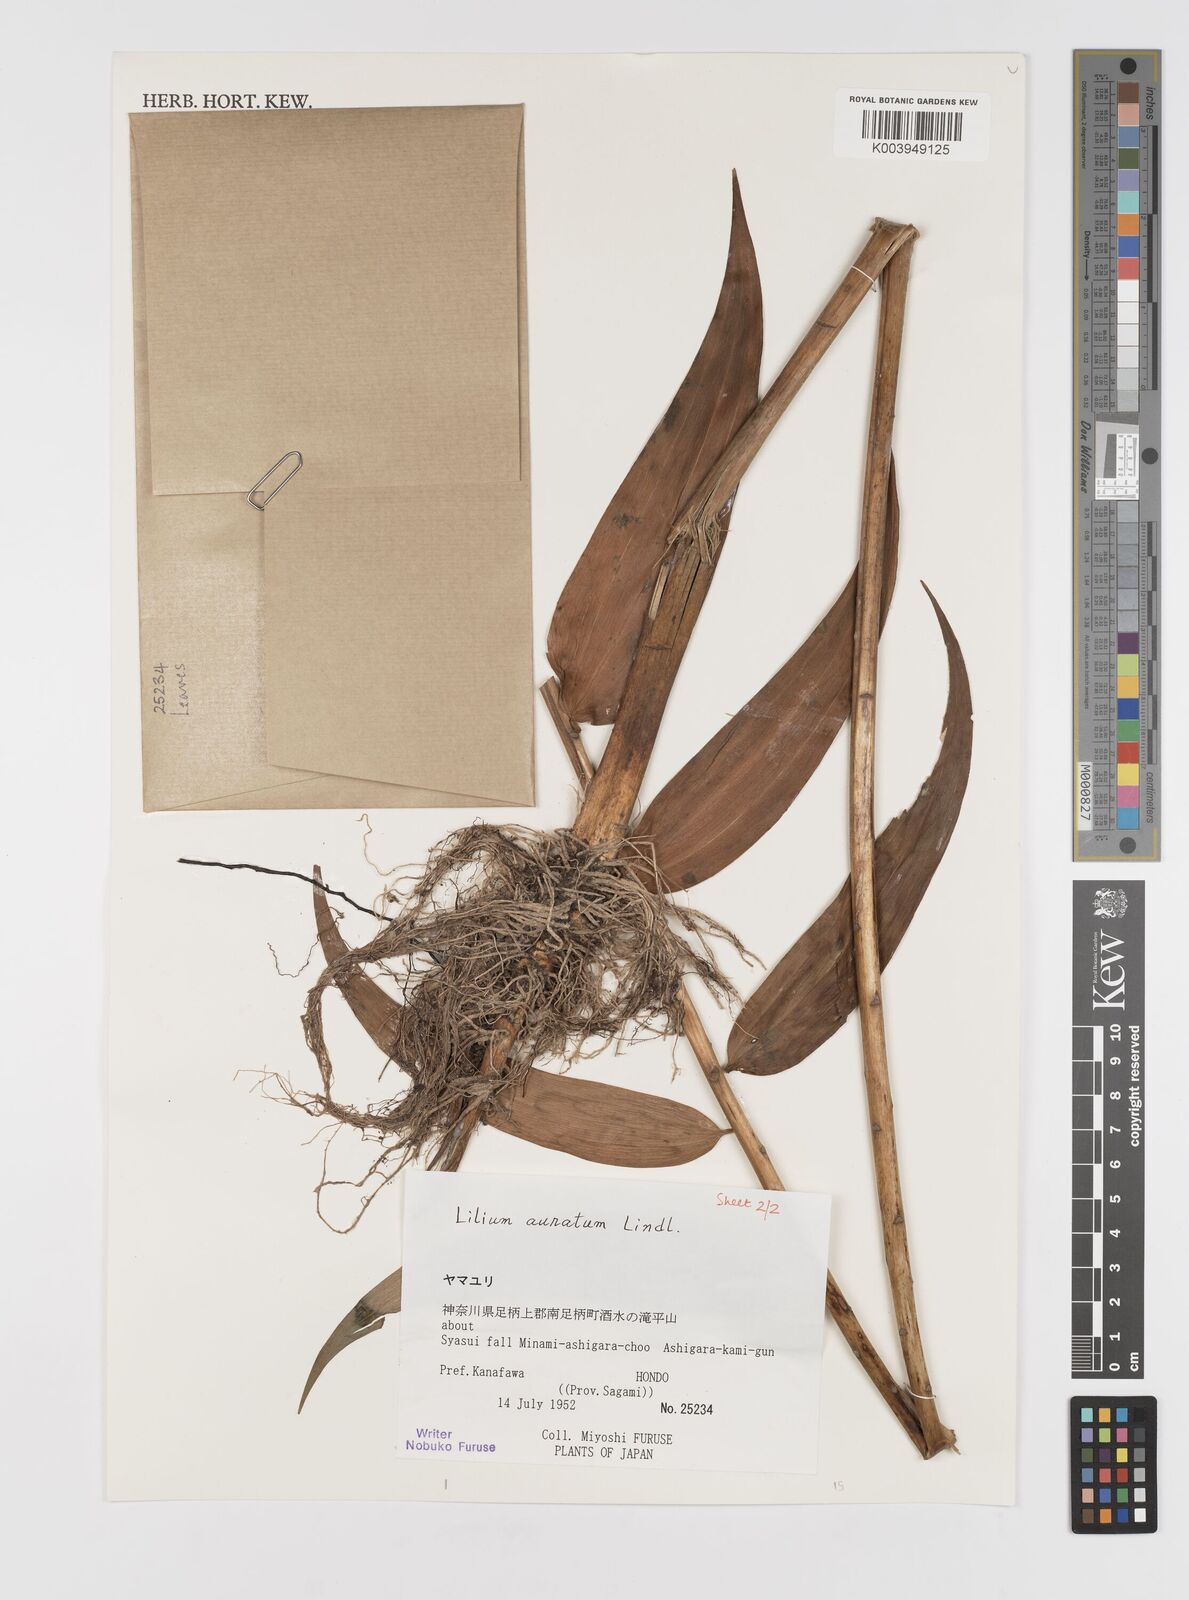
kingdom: Plantae
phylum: Tracheophyta
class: Liliopsida
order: Liliales
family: Liliaceae
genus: Lilium
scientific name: Lilium auratum
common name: Golden-ray lily
